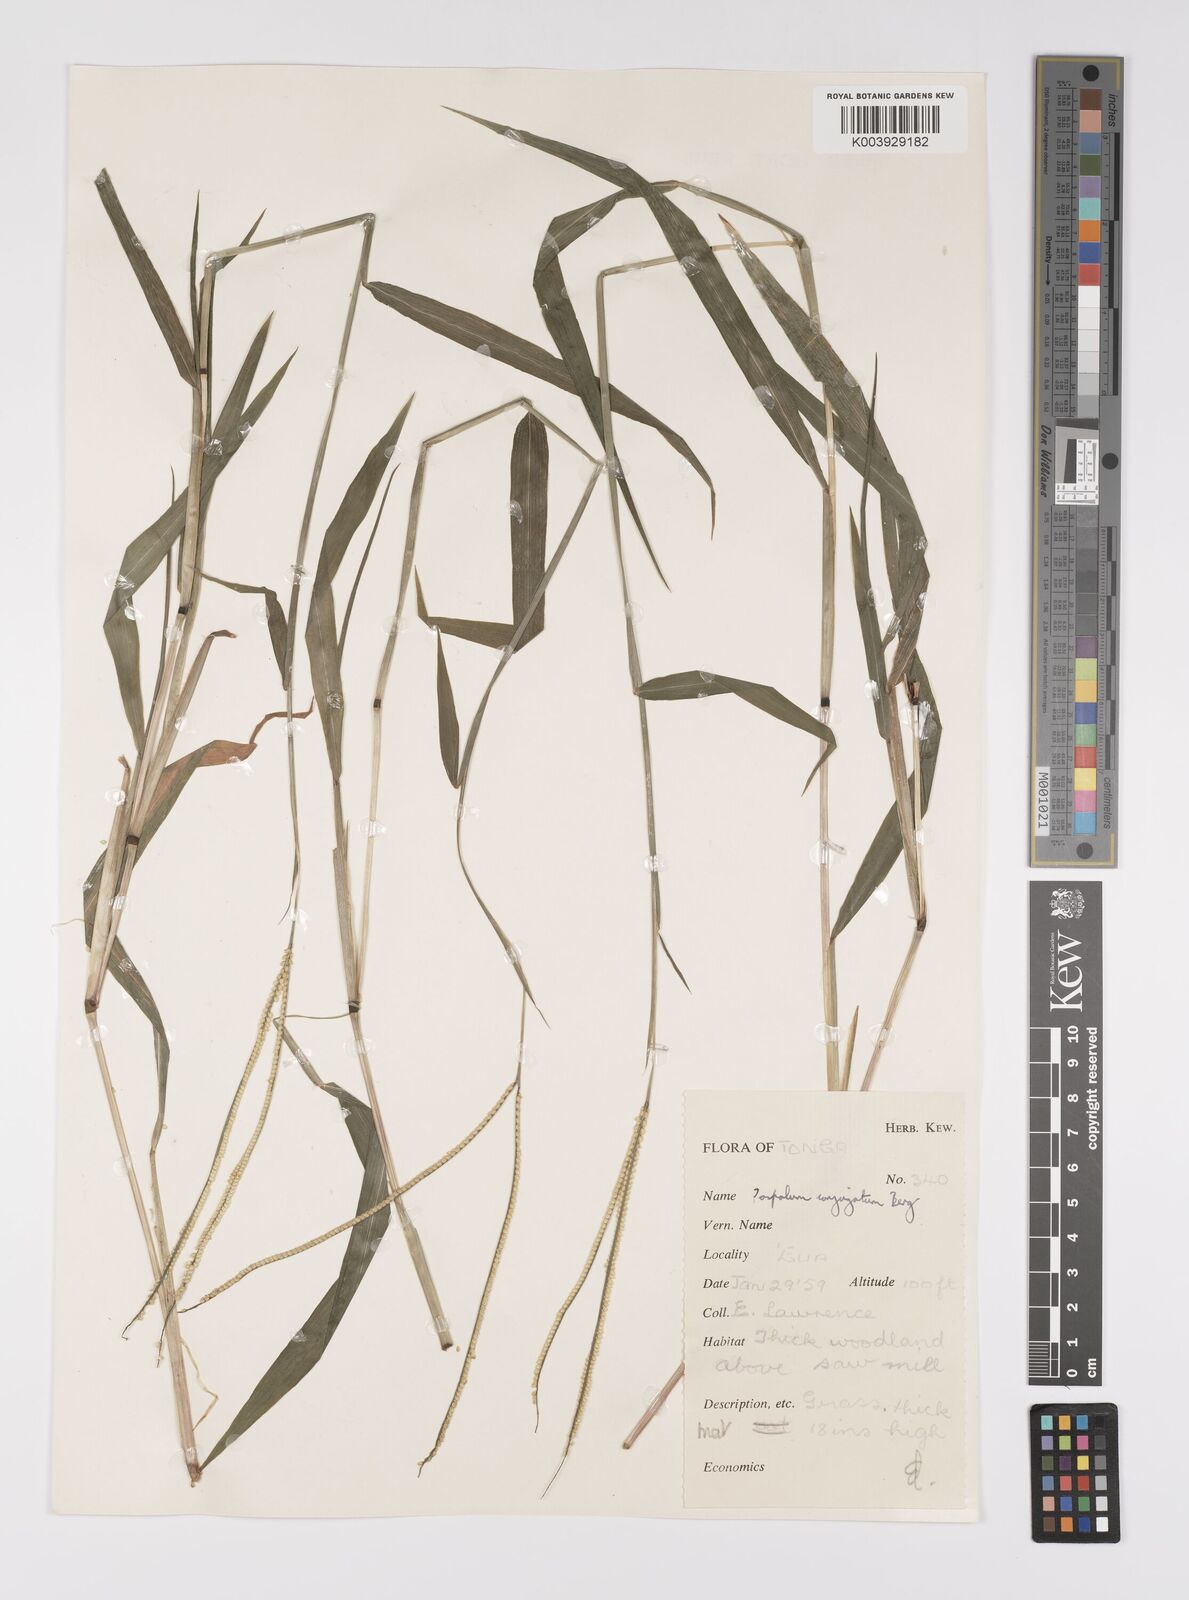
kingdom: Plantae
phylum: Tracheophyta
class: Liliopsida
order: Poales
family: Poaceae
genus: Paspalum
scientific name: Paspalum conjugatum
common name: Hilograss
